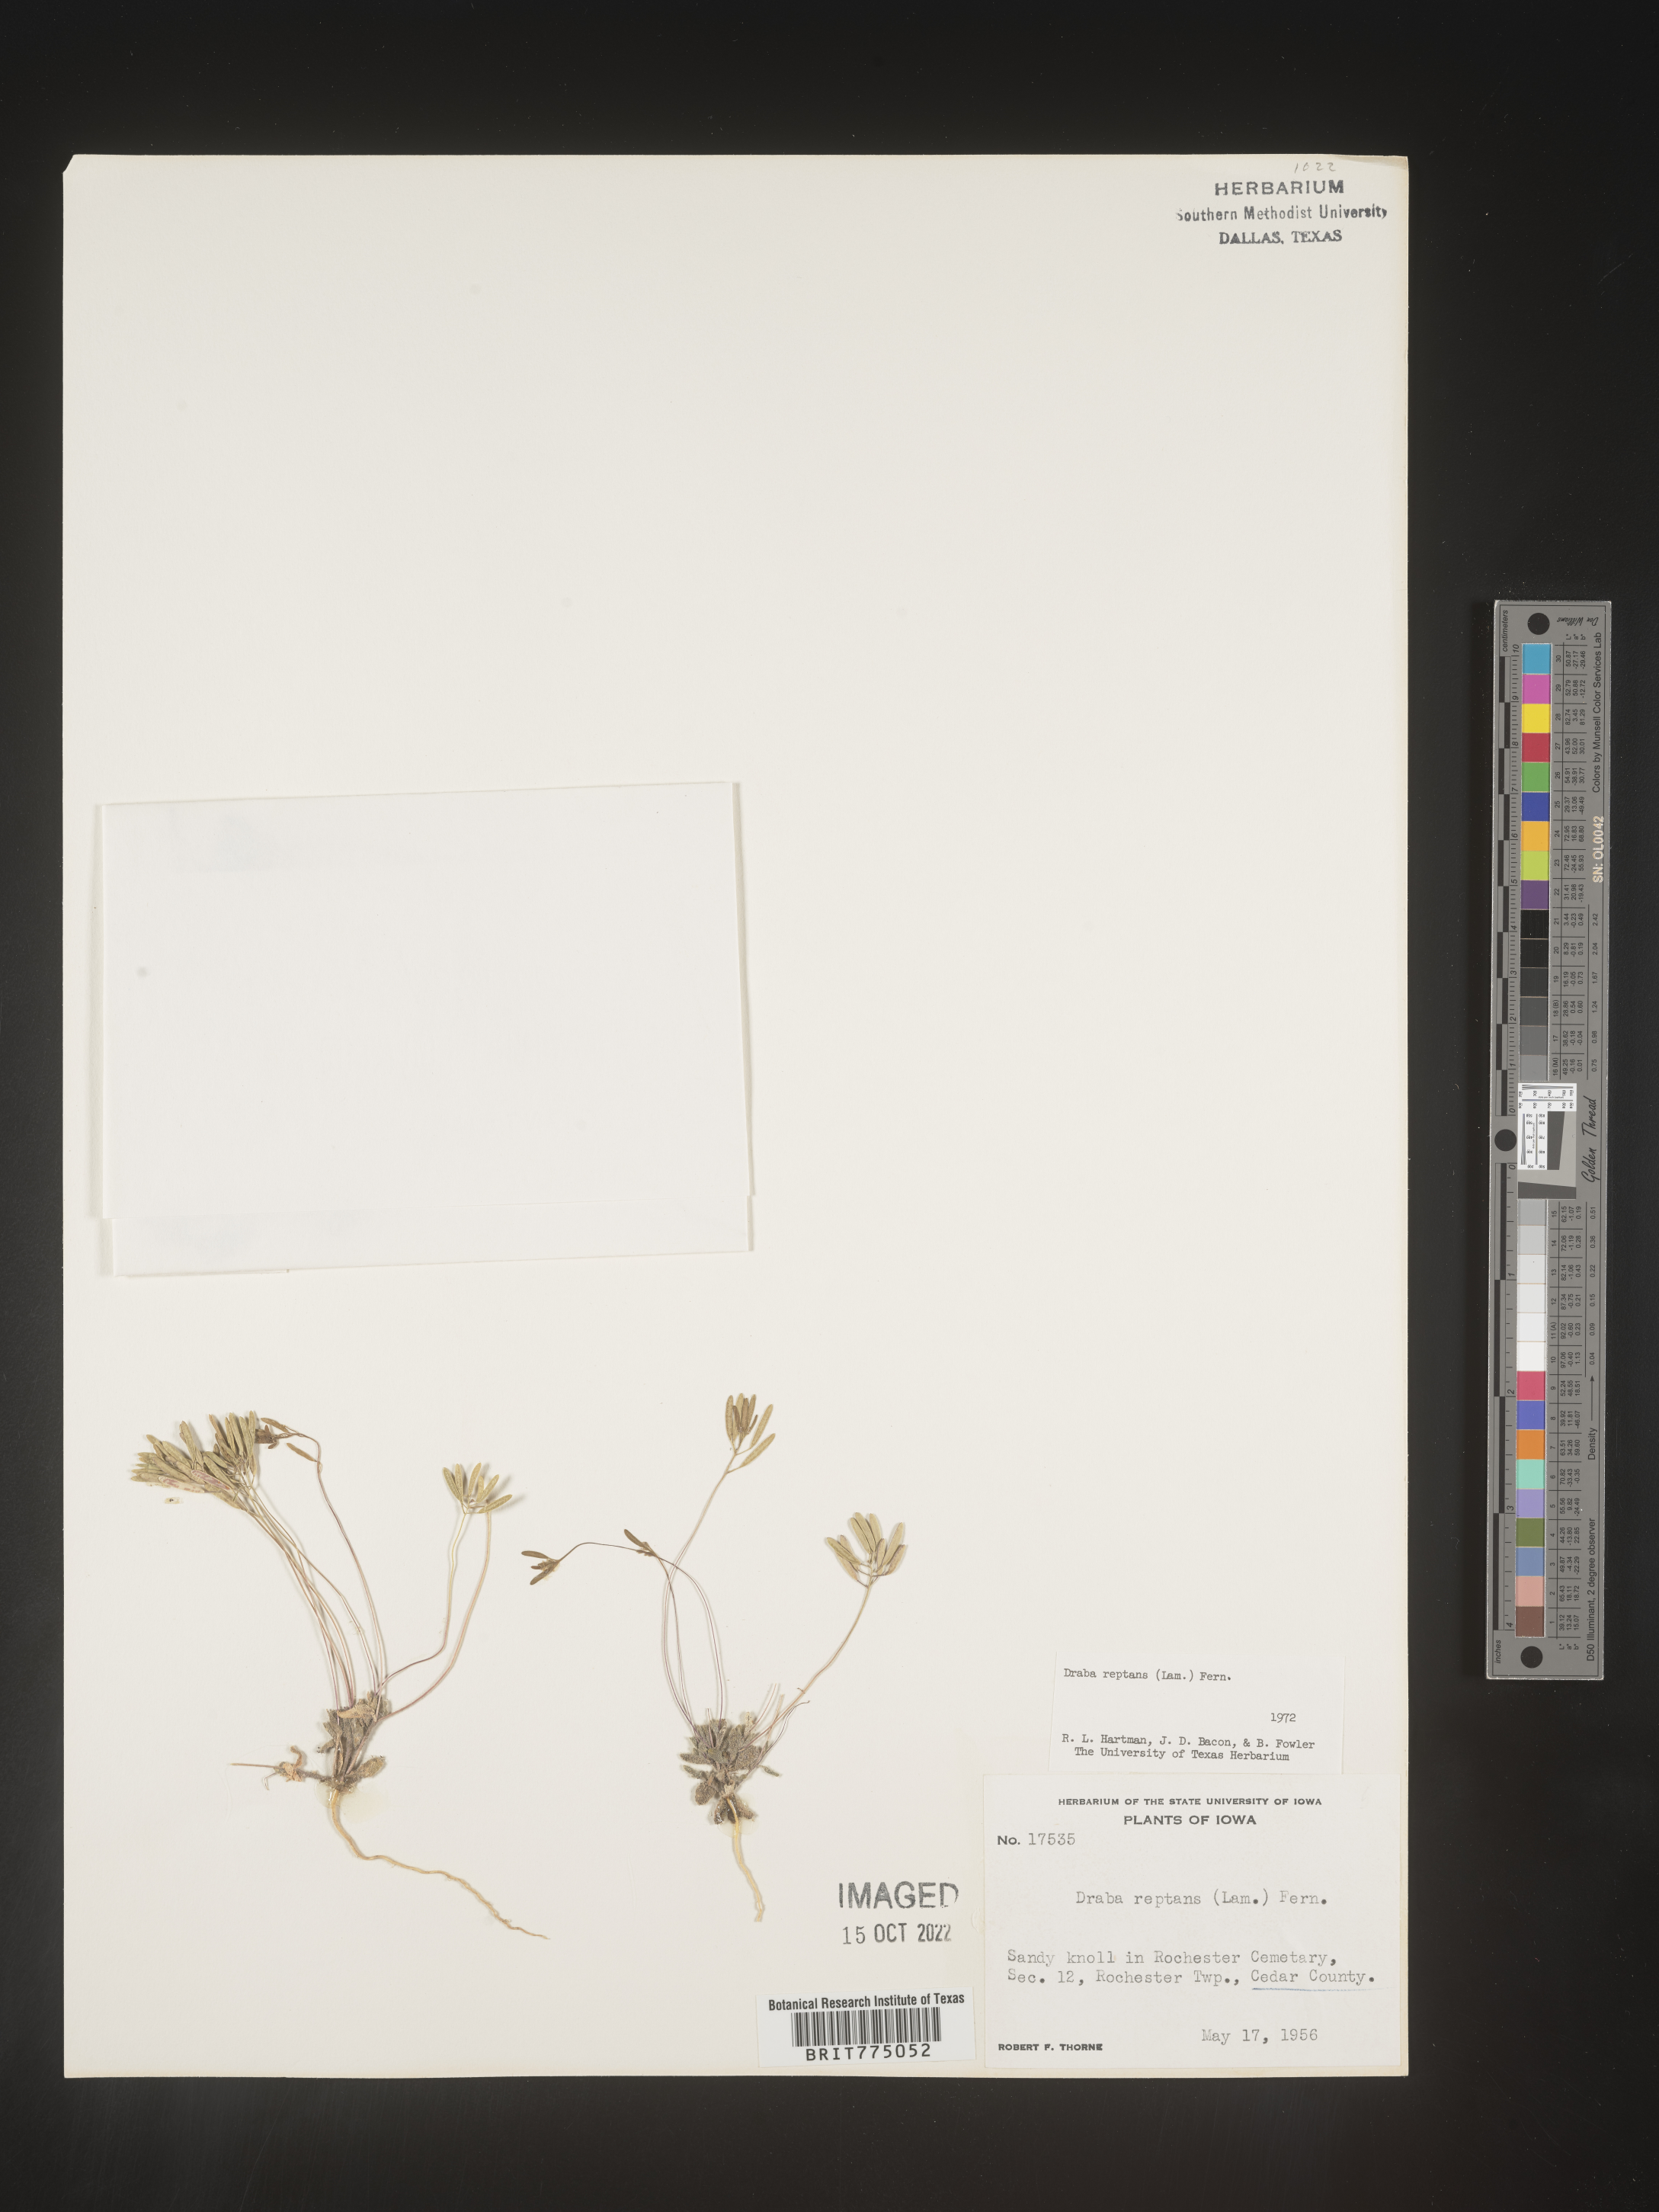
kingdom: Plantae
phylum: Tracheophyta
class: Magnoliopsida
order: Brassicales
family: Brassicaceae
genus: Tomostima
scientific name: Tomostima reptans
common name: Carolina draba
